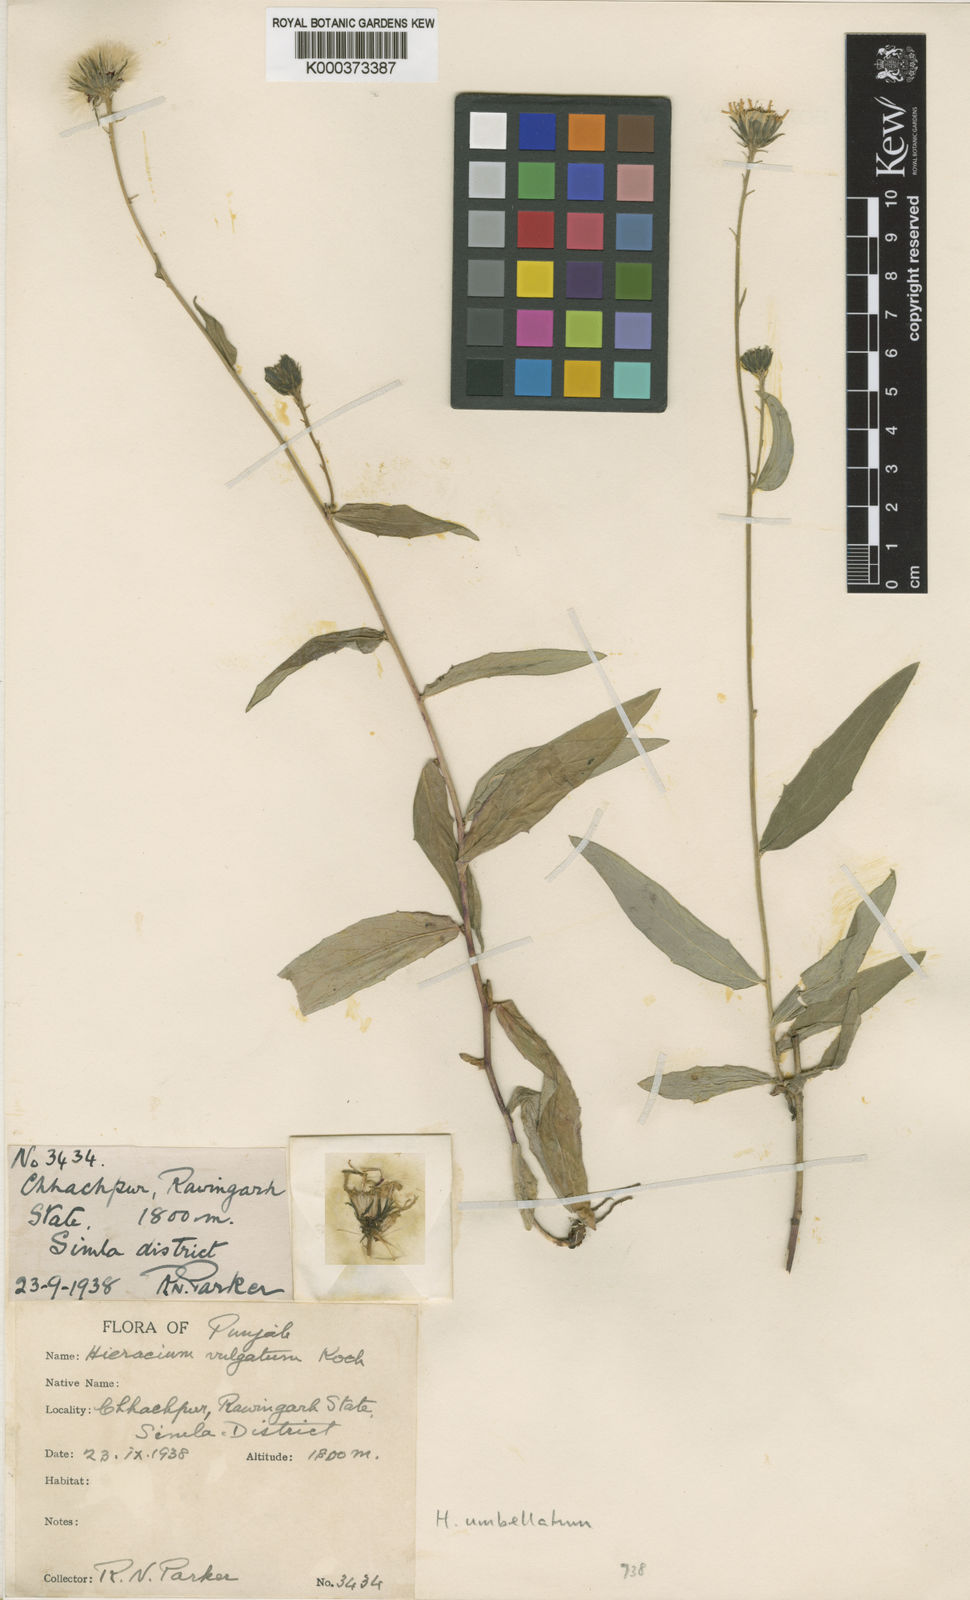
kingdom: Plantae
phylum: Tracheophyta
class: Magnoliopsida
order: Asterales
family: Asteraceae
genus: Hieracium
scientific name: Hieracium umbellatum
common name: Northern hawkweed
